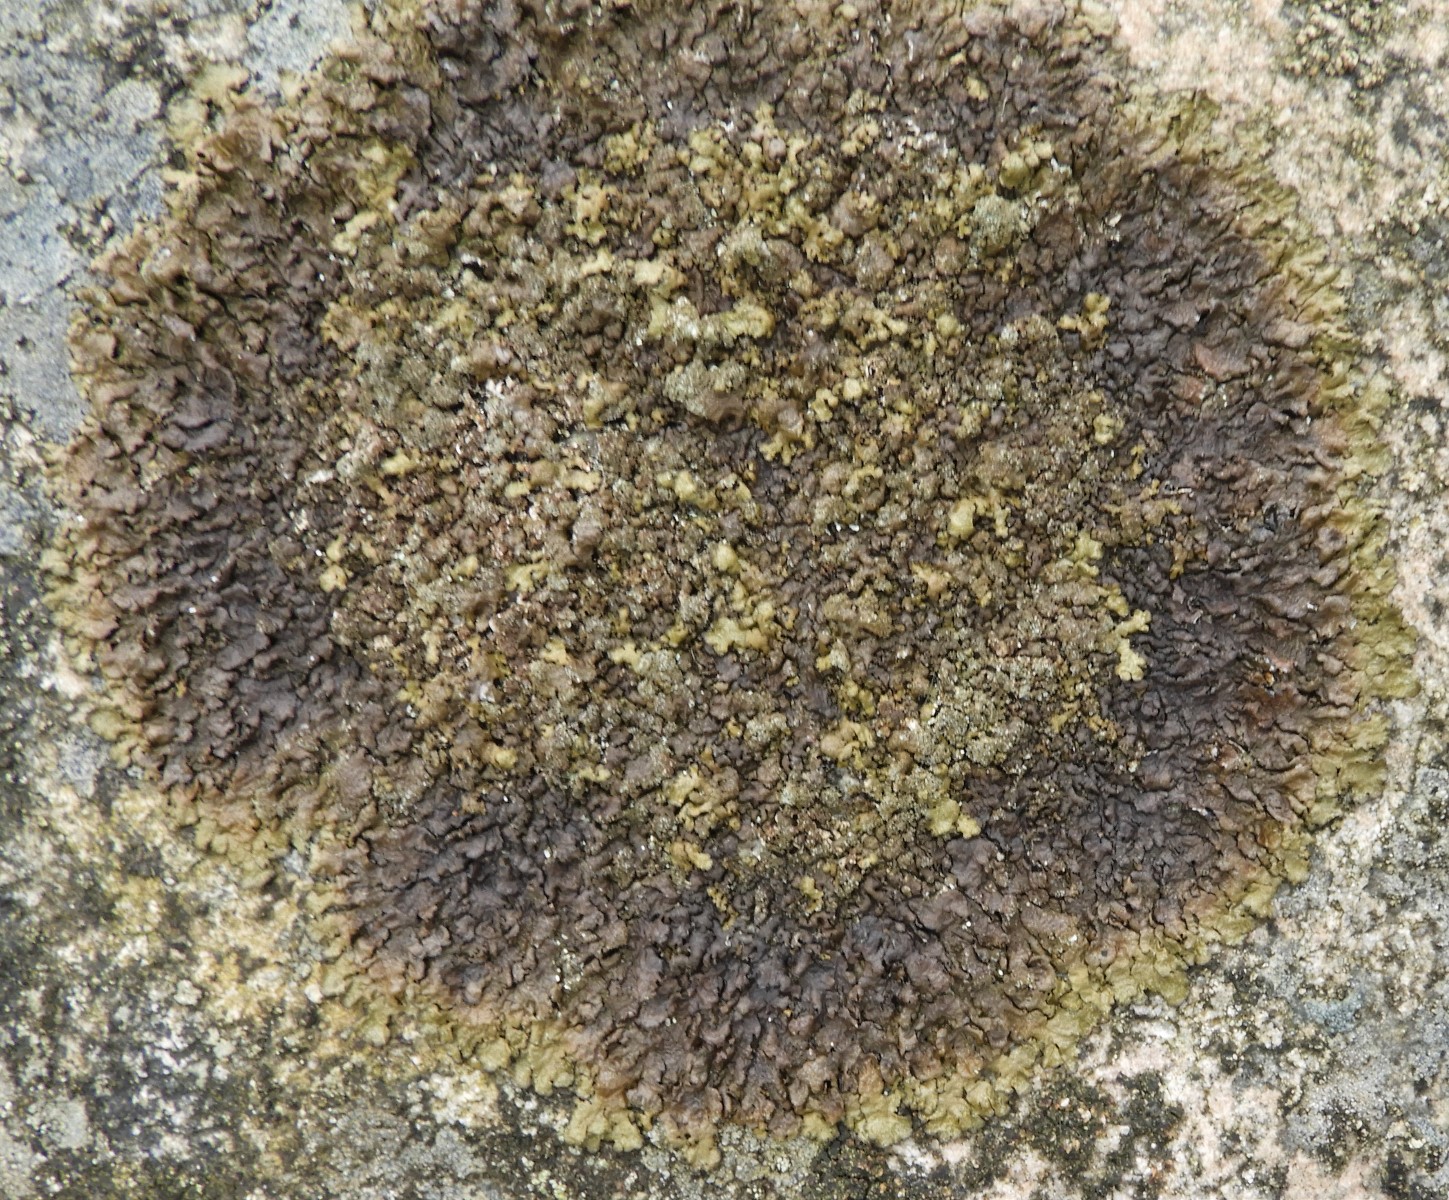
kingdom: Fungi
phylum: Ascomycota
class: Lecanoromycetes
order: Lecanorales
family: Parmeliaceae
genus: Xanthoparmelia
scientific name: Xanthoparmelia verruculifera
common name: småknoppet skållav
